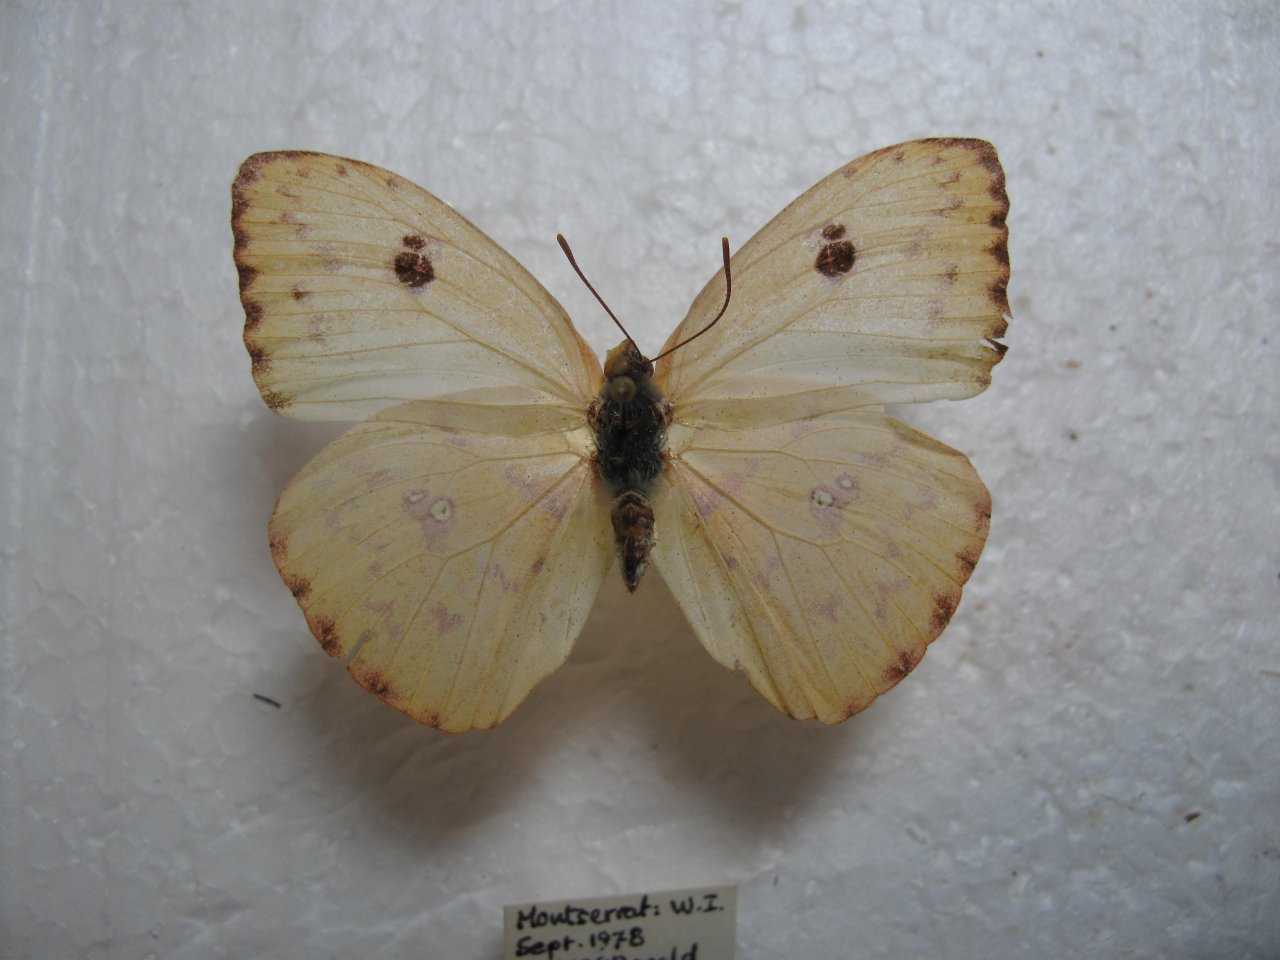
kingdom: Animalia
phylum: Arthropoda
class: Insecta
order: Lepidoptera
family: Pieridae
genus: Phoebis
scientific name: Phoebis sennae
